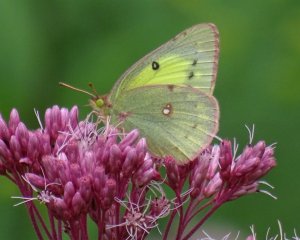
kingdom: Animalia
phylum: Arthropoda
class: Insecta
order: Lepidoptera
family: Pieridae
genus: Colias
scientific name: Colias philodice
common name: Clouded Sulphur
